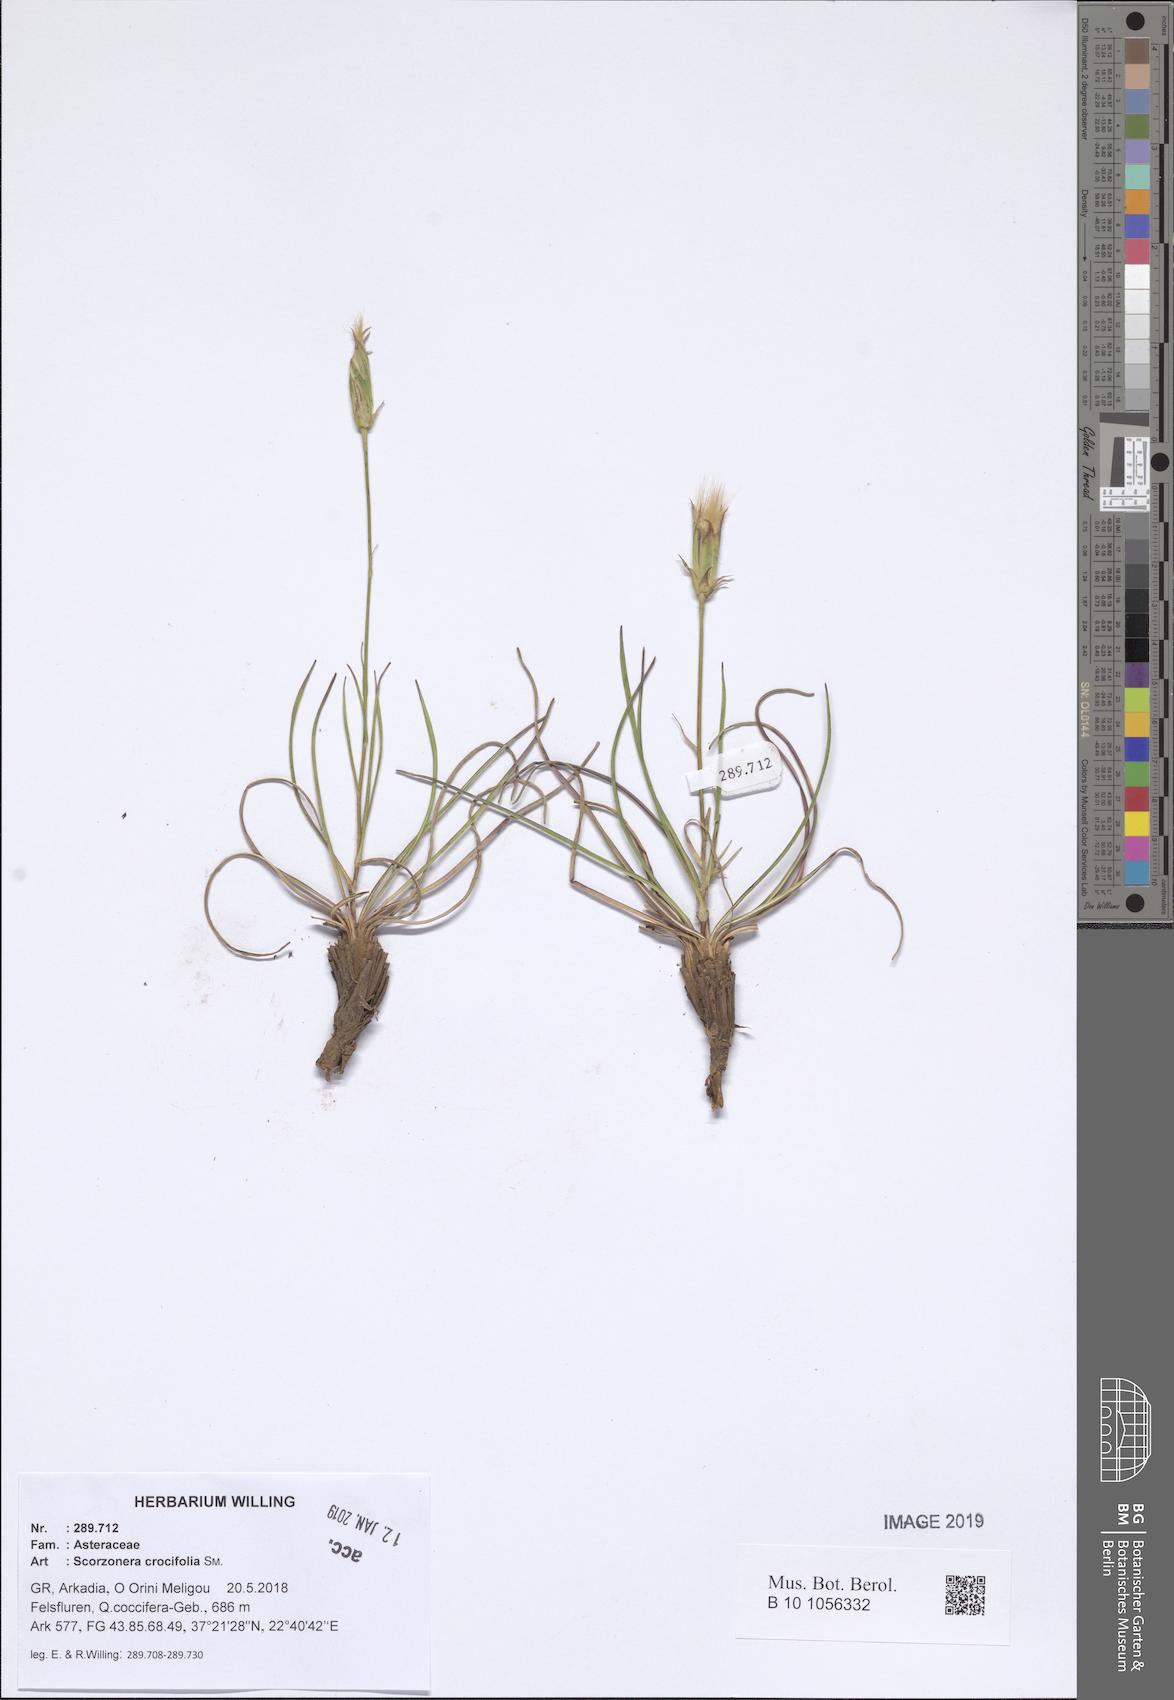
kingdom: Plantae
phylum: Tracheophyta
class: Magnoliopsida
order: Asterales
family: Asteraceae
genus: Pseudopodospermum
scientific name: Pseudopodospermum crocifolium
